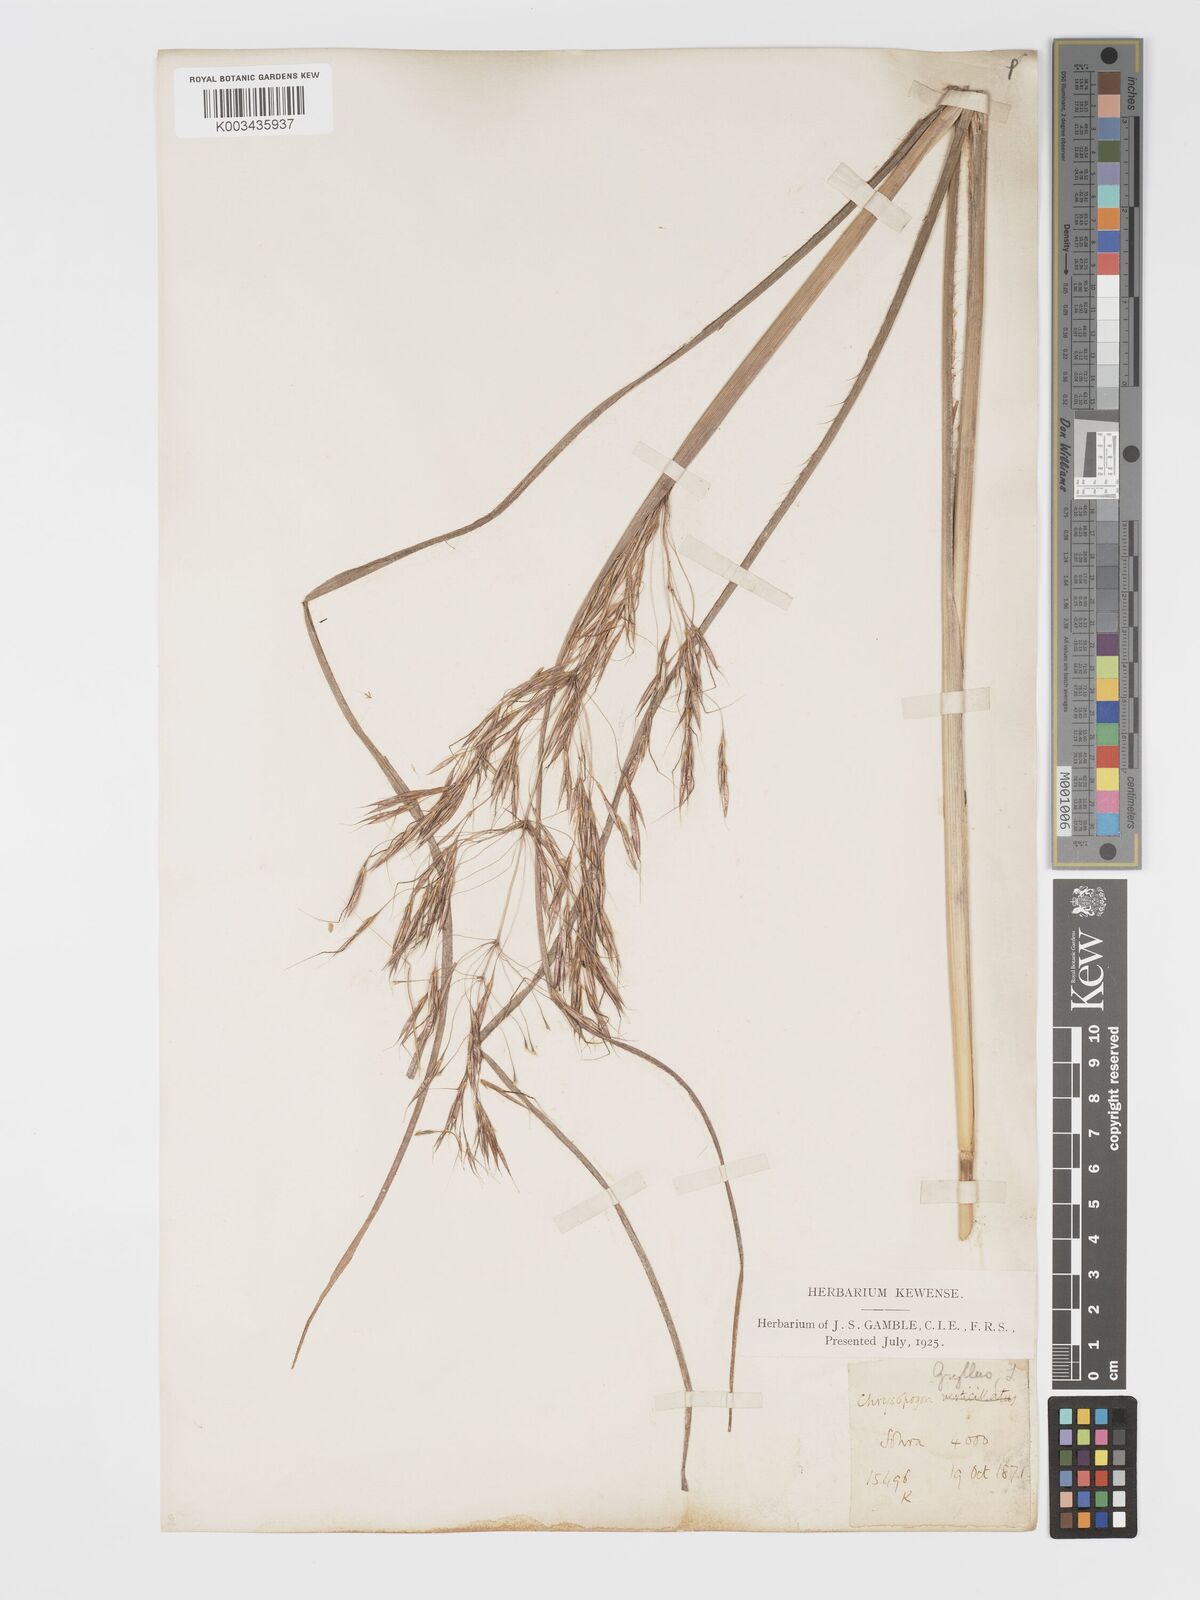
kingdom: Plantae
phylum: Tracheophyta
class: Liliopsida
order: Poales
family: Poaceae
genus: Chrysopogon
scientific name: Chrysopogon gryllus
